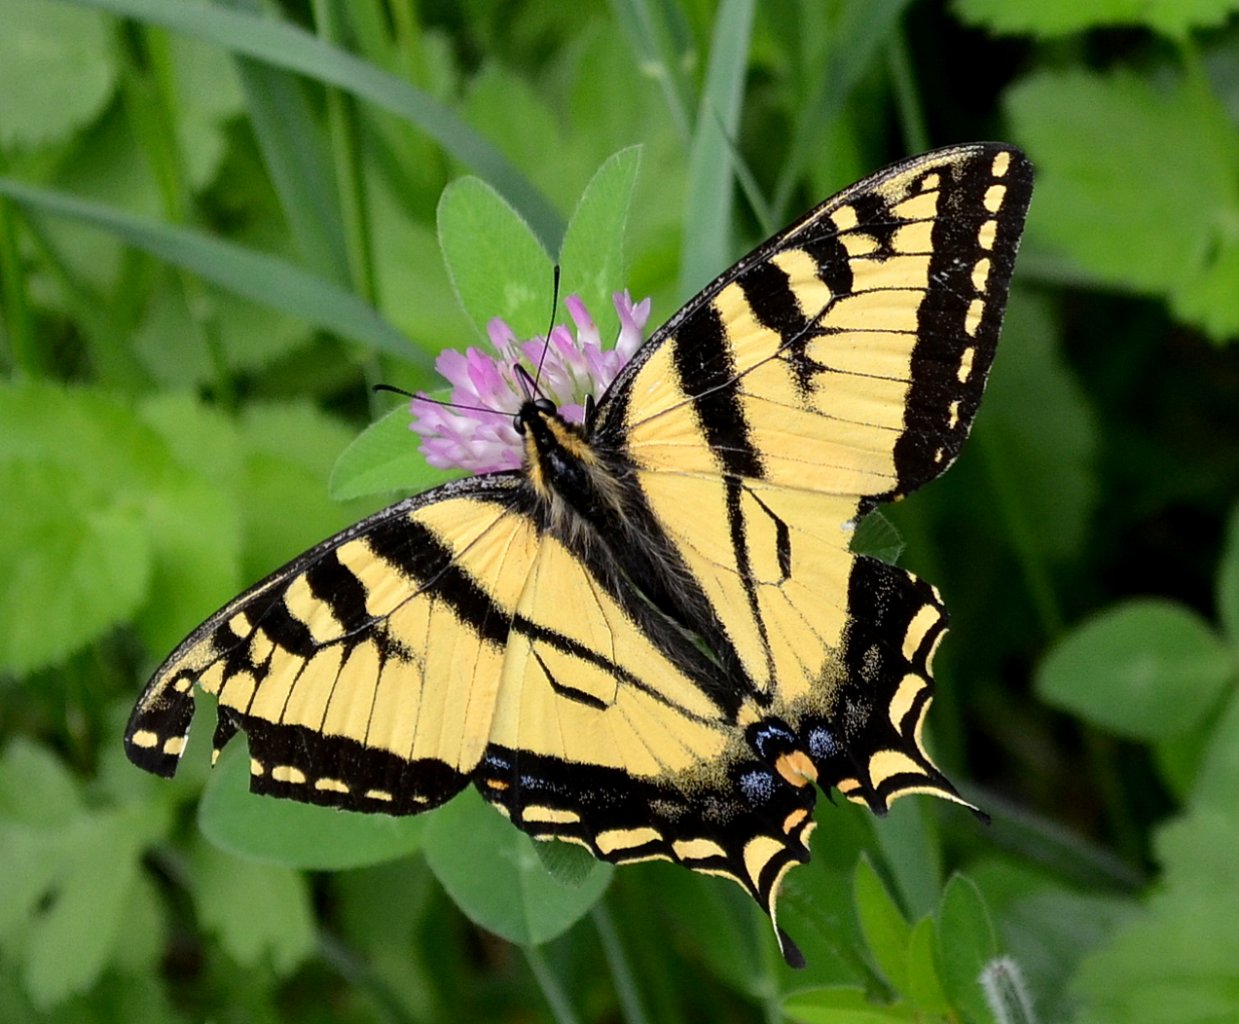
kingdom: Animalia
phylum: Arthropoda
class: Insecta
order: Lepidoptera
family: Papilionidae
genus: Pterourus
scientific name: Pterourus canadensis
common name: Canadian Tiger Swallowtail
